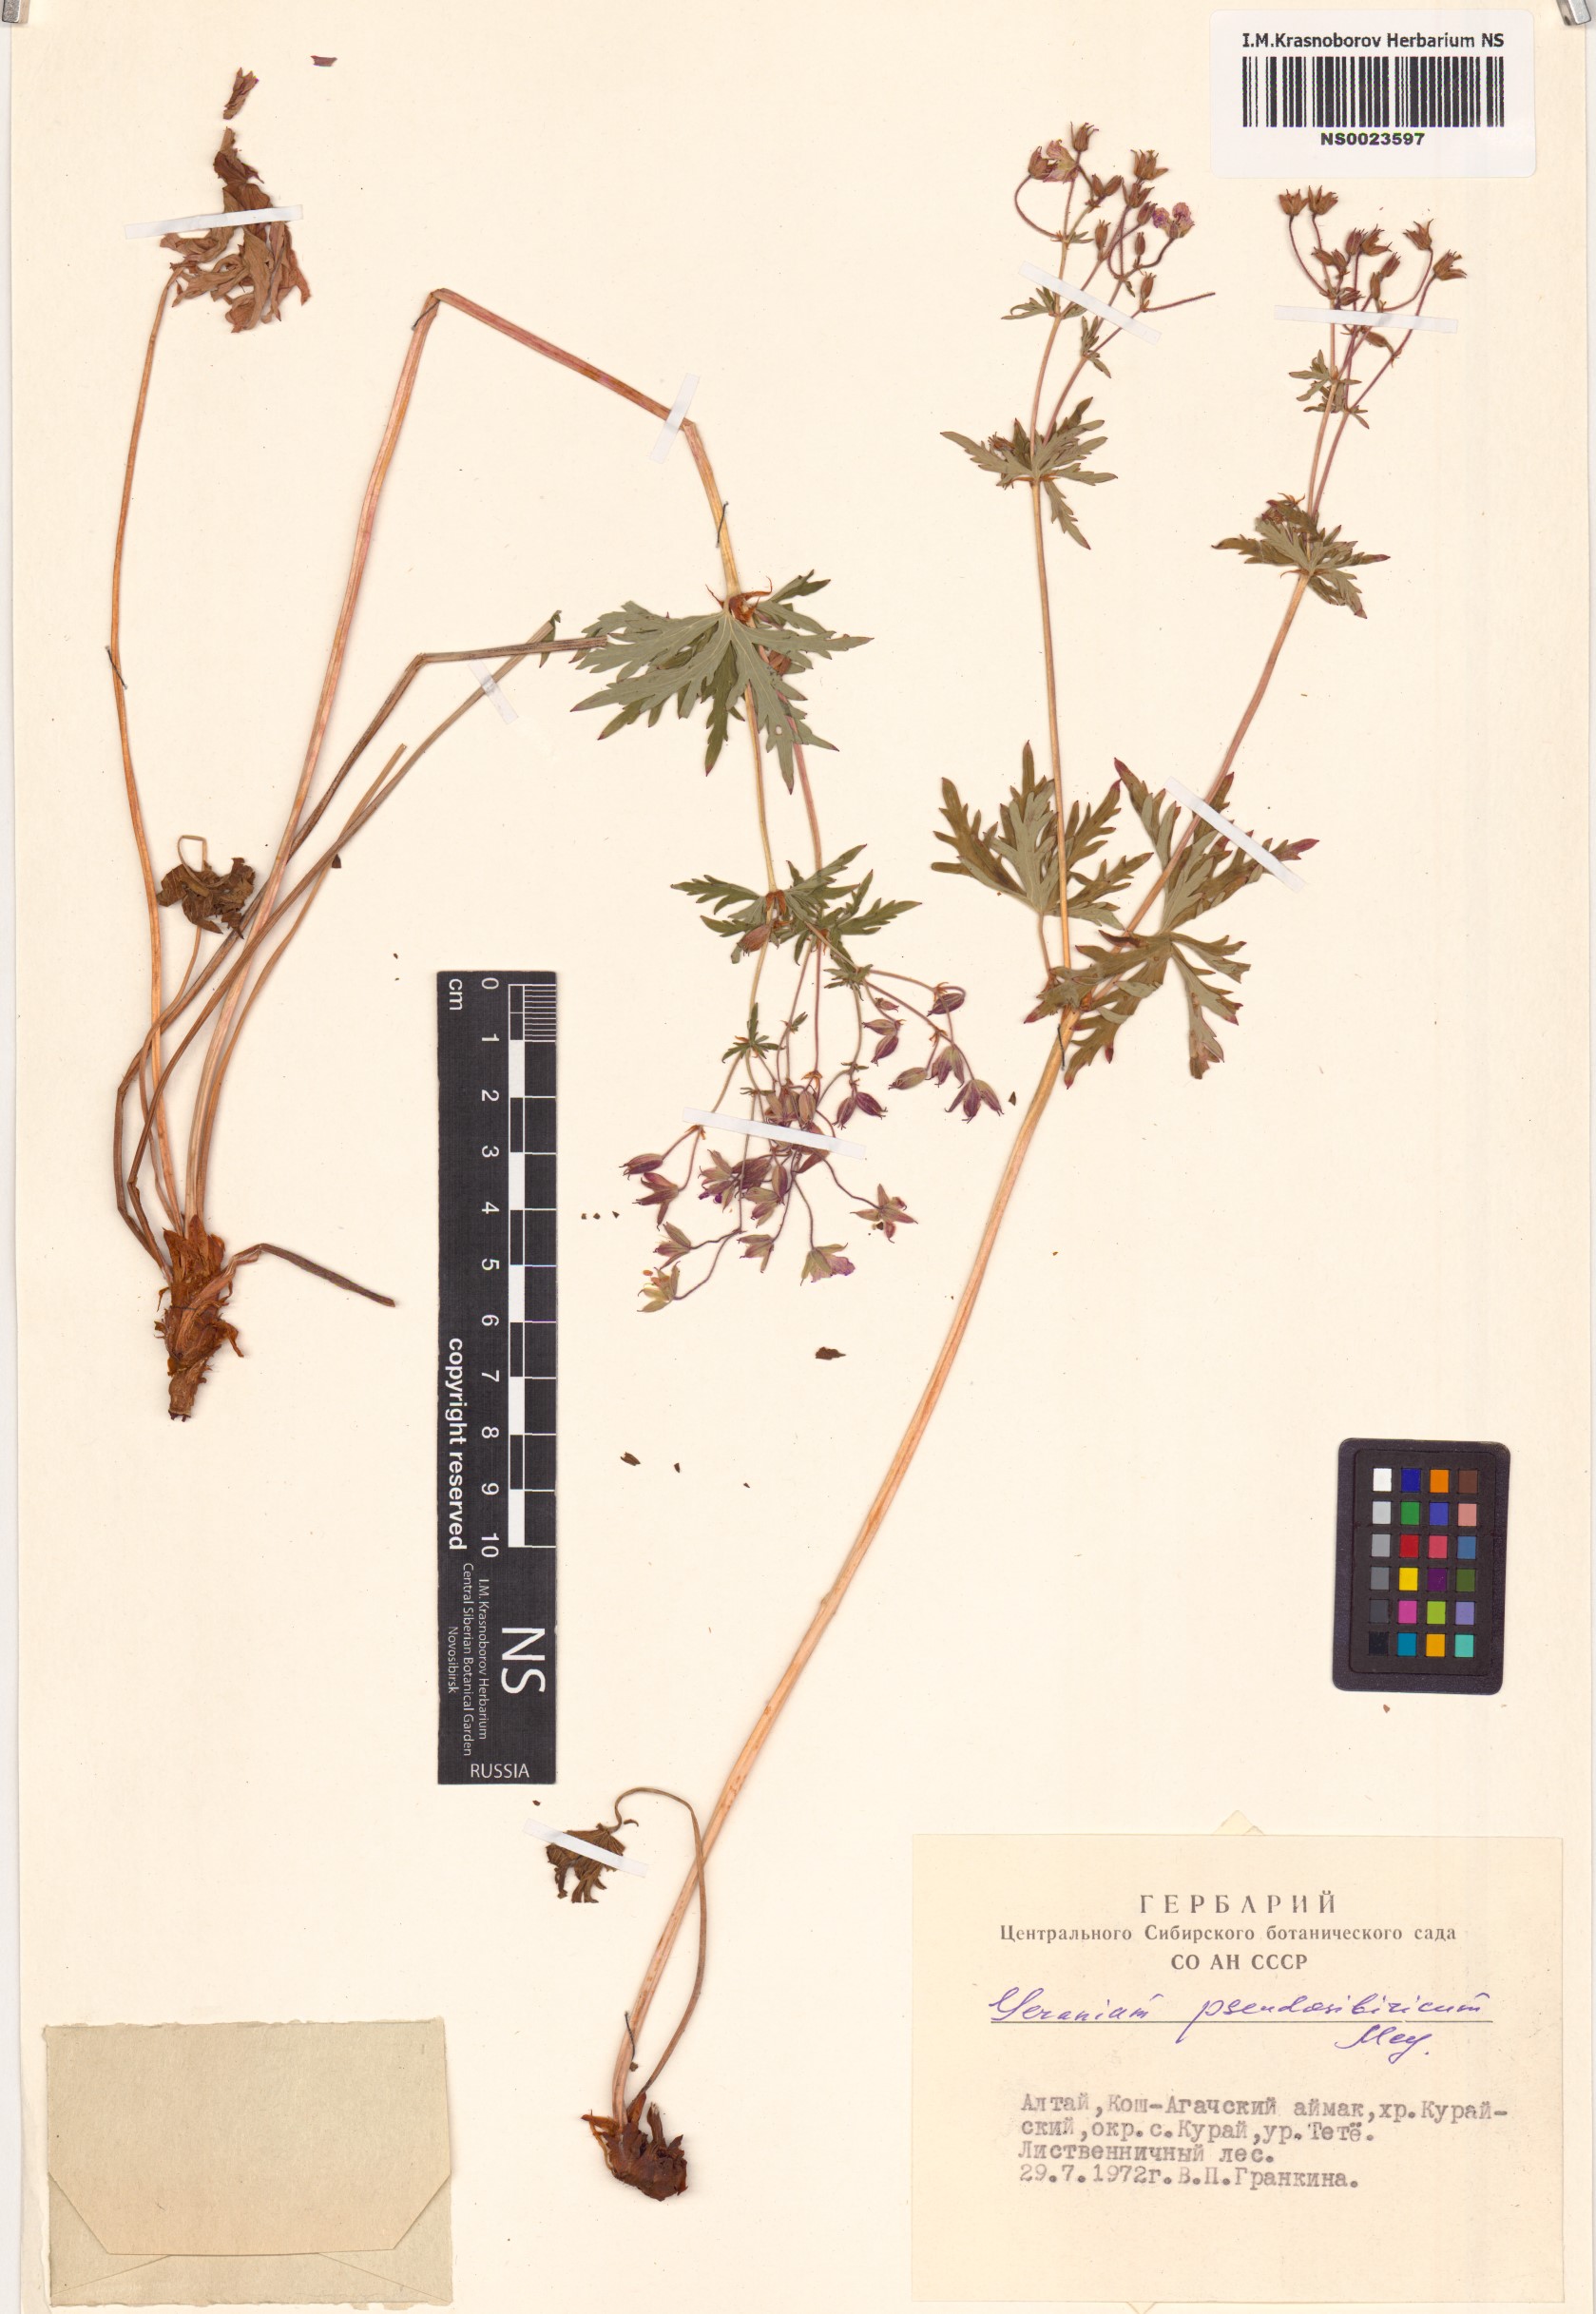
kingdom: Plantae
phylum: Tracheophyta
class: Magnoliopsida
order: Geraniales
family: Geraniaceae
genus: Geranium
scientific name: Geranium pseudosibiricum
